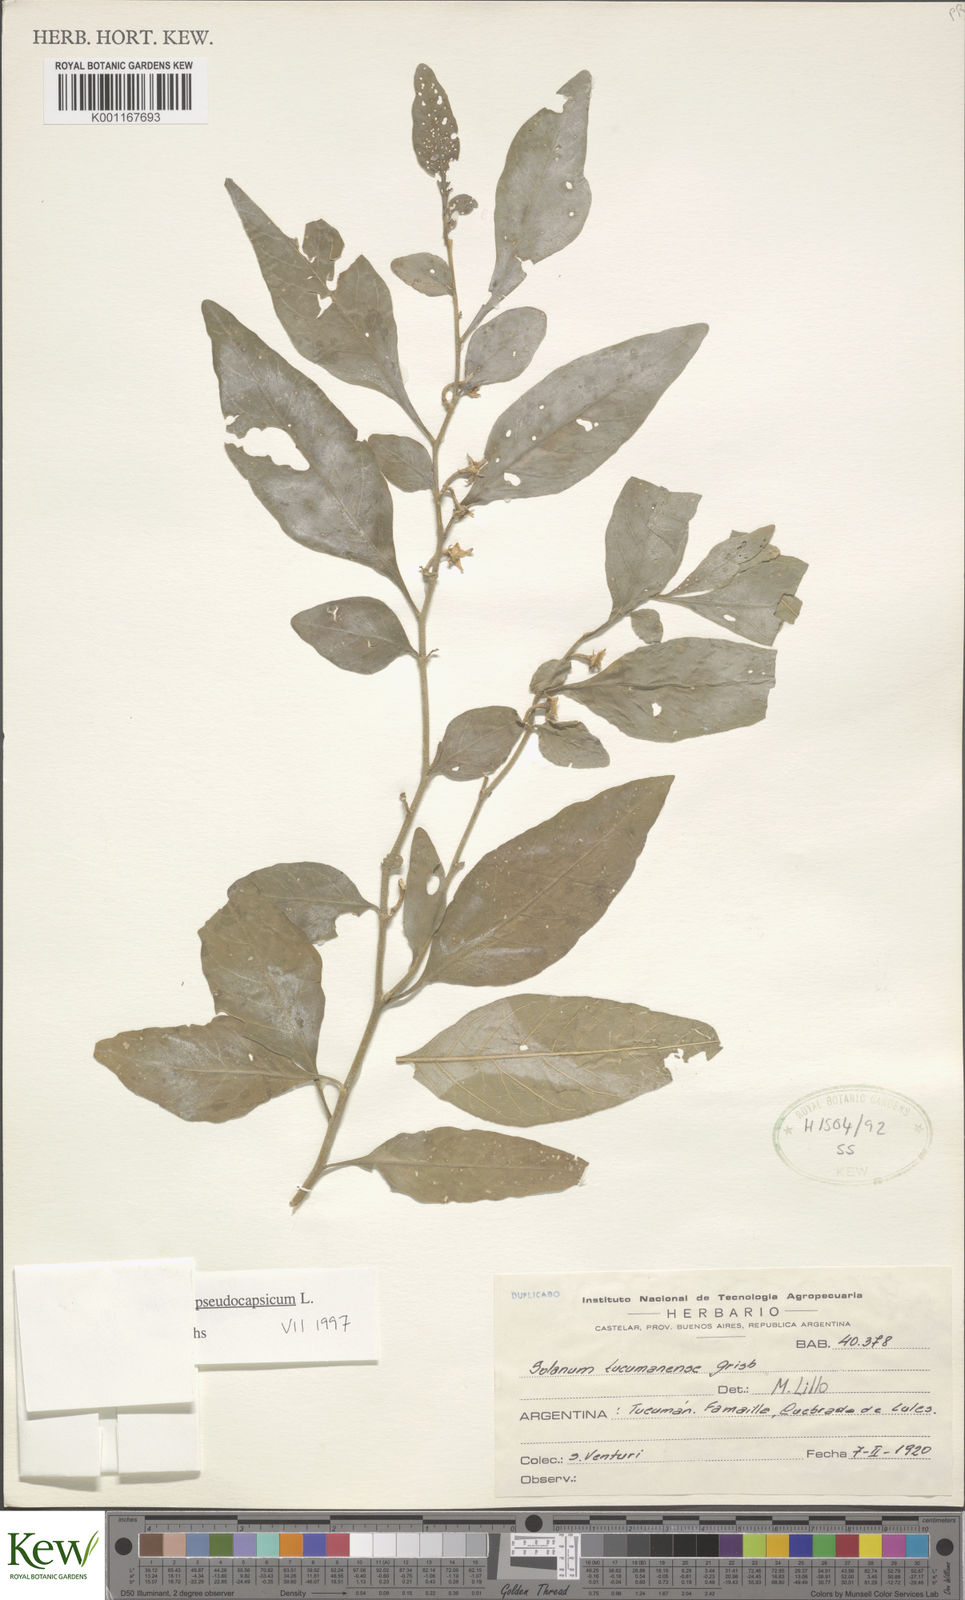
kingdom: Plantae
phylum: Tracheophyta
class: Magnoliopsida
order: Solanales
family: Solanaceae
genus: Solanum
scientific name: Solanum pseudocapsicum
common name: Jerusalem cherry
